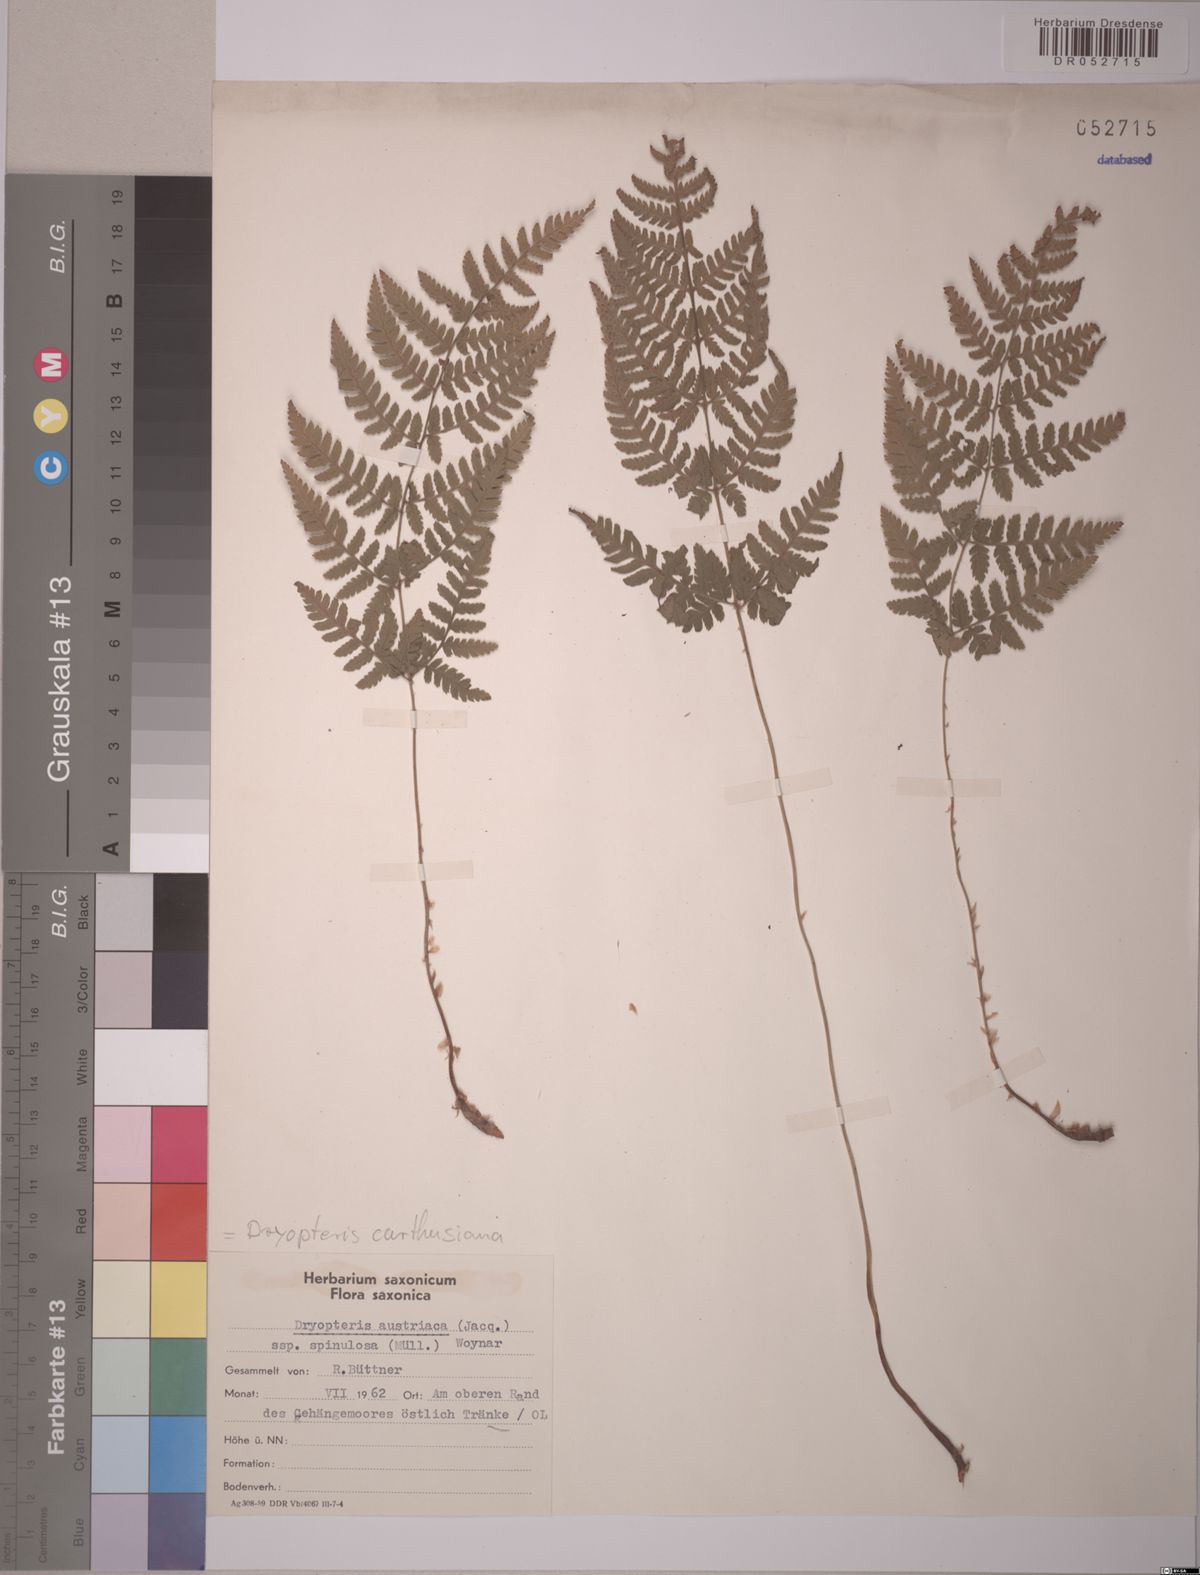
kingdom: Plantae
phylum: Tracheophyta
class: Polypodiopsida
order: Polypodiales
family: Dryopteridaceae
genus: Dryopteris
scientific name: Dryopteris carthusiana
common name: Narrow buckler-fern
